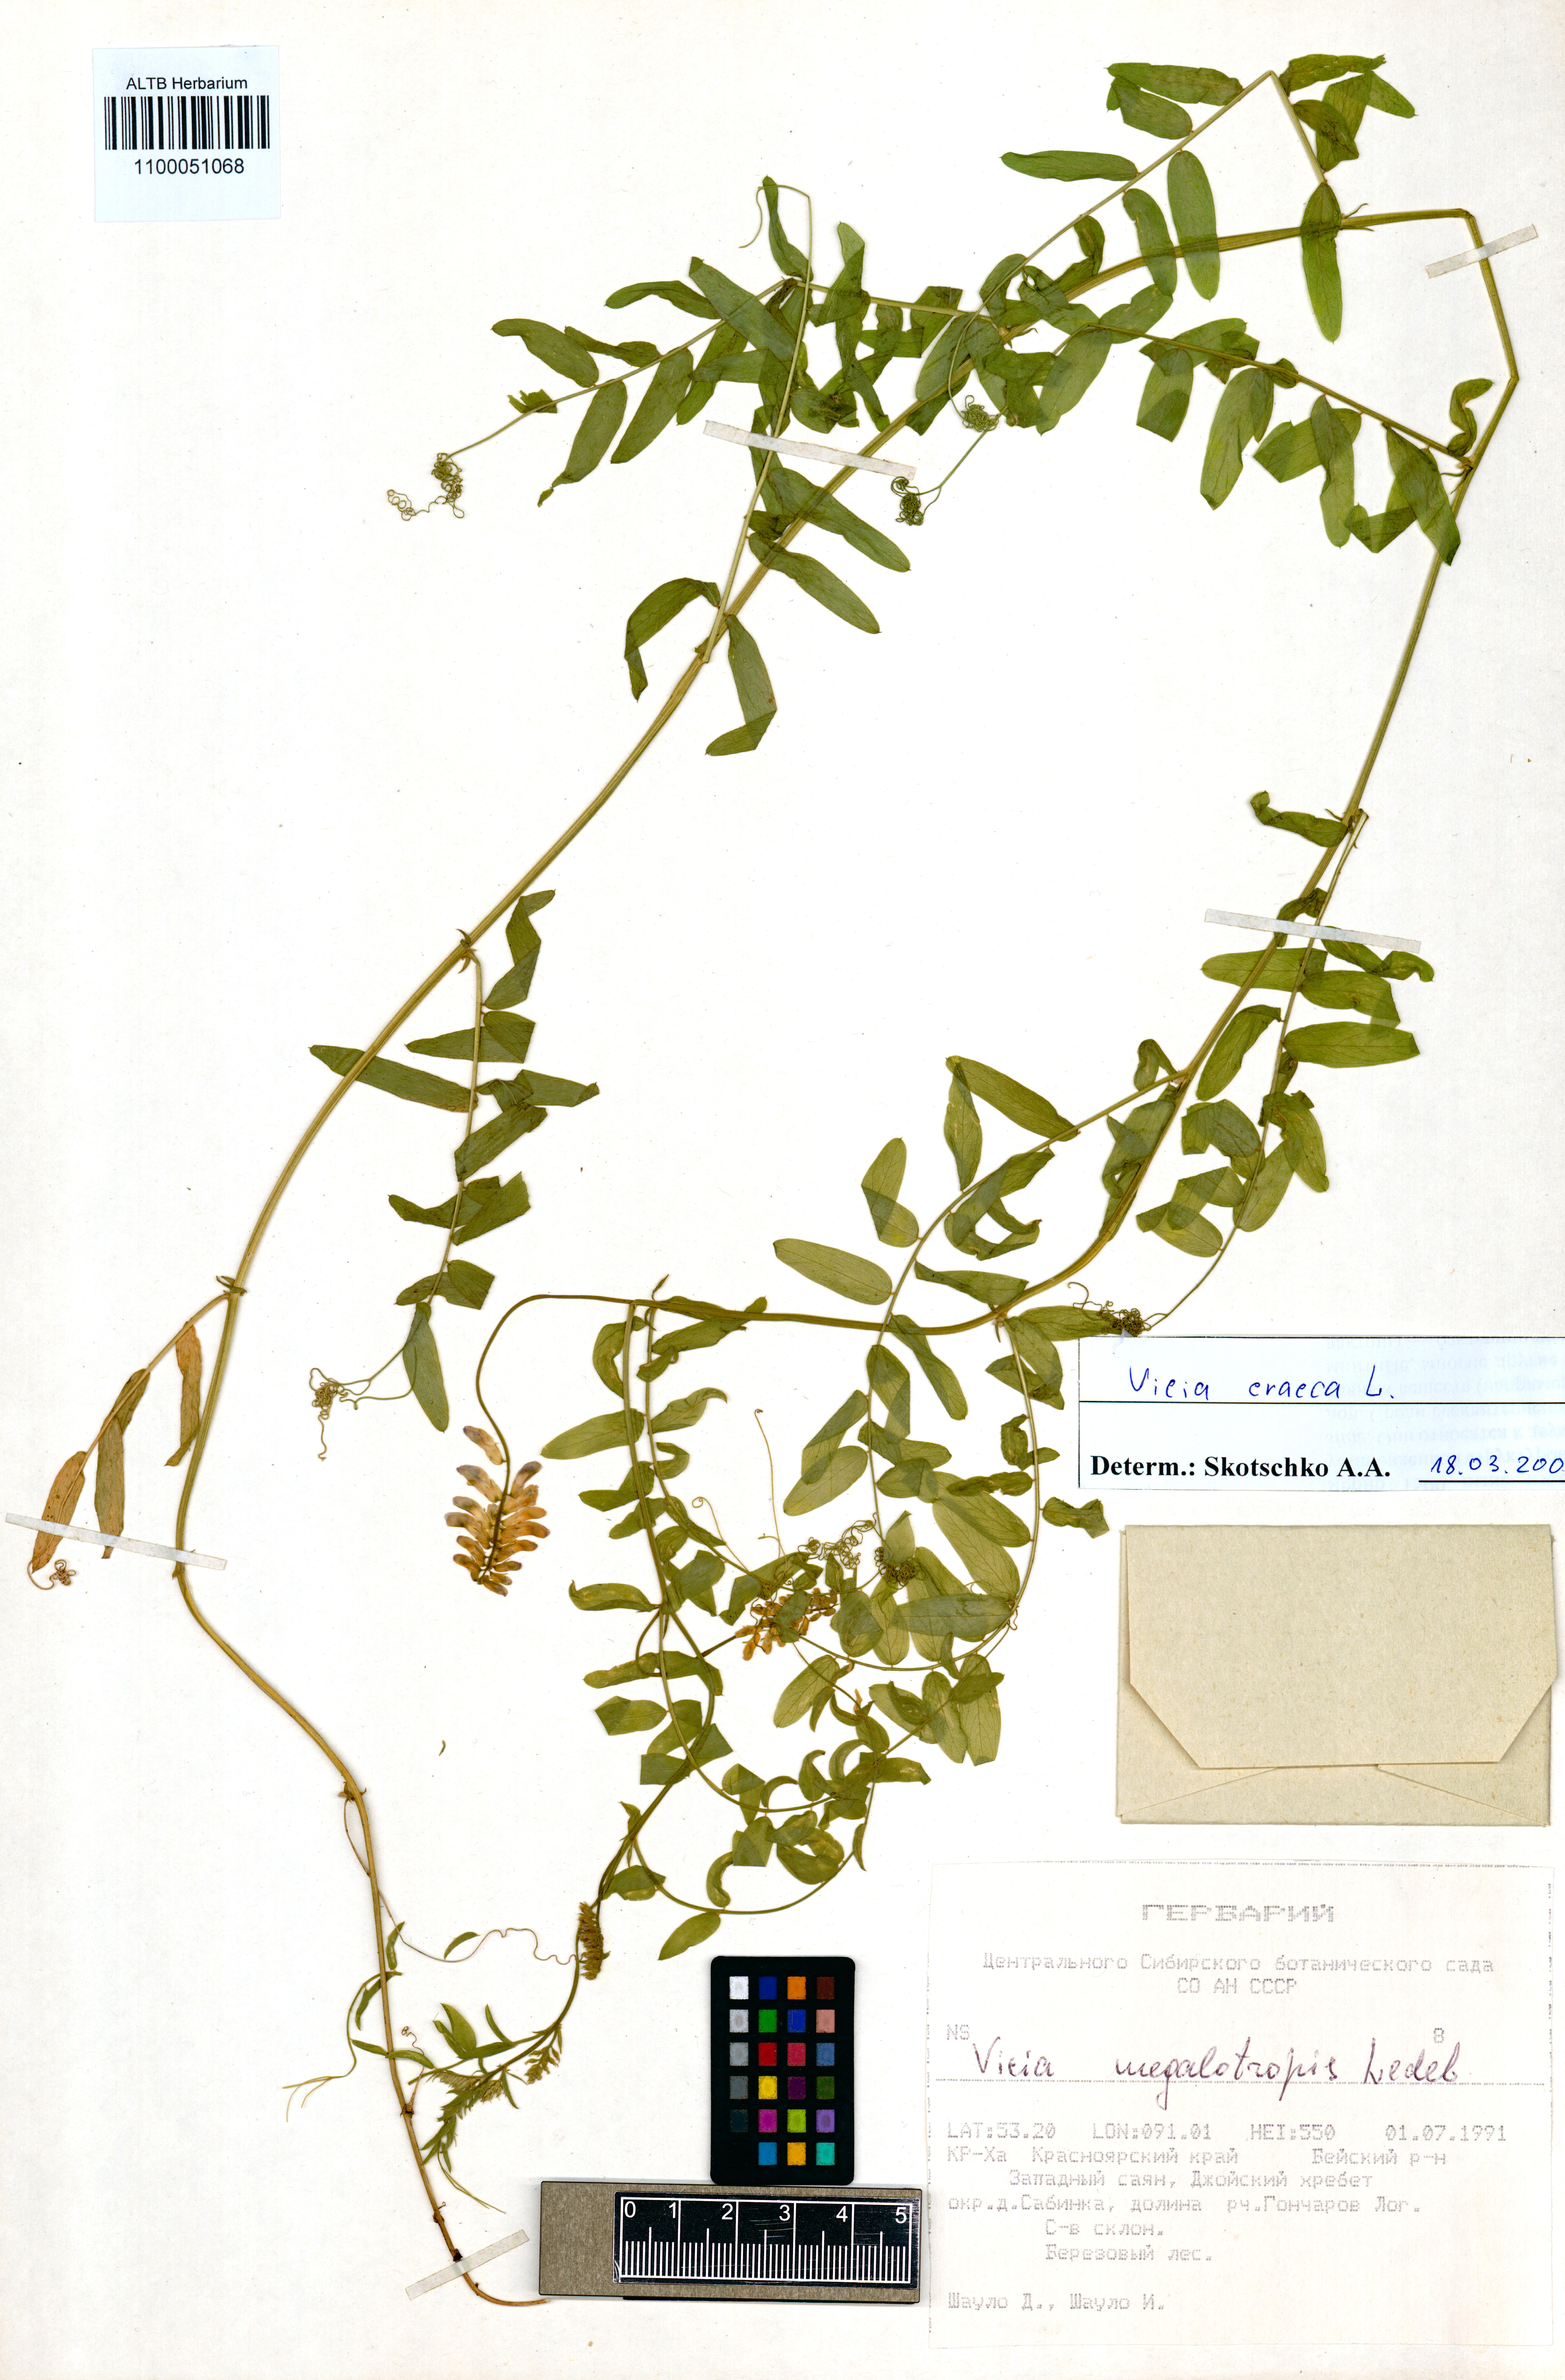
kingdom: Plantae
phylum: Tracheophyta
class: Magnoliopsida
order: Fabales
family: Fabaceae
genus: Vicia
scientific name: Vicia cracca
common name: Bird vetch
